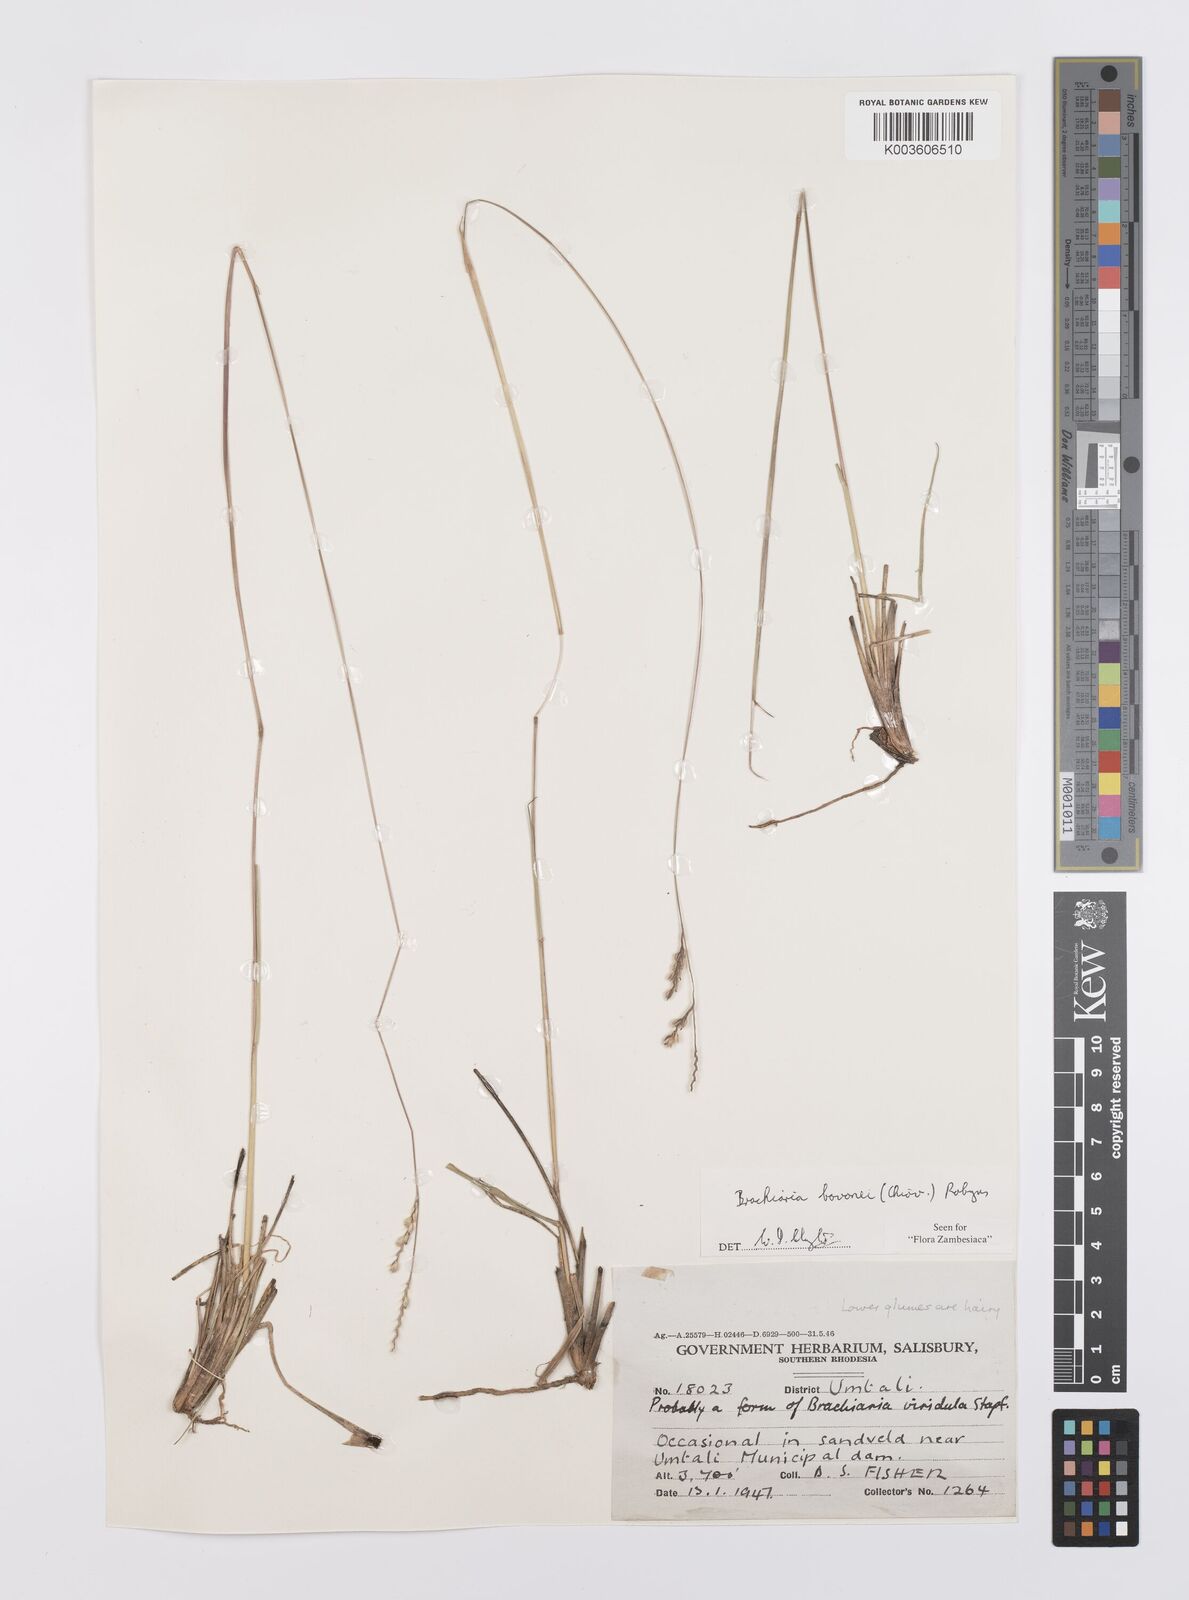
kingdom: Plantae
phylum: Tracheophyta
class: Liliopsida
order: Poales
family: Poaceae
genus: Urochloa
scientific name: Urochloa bovonei
